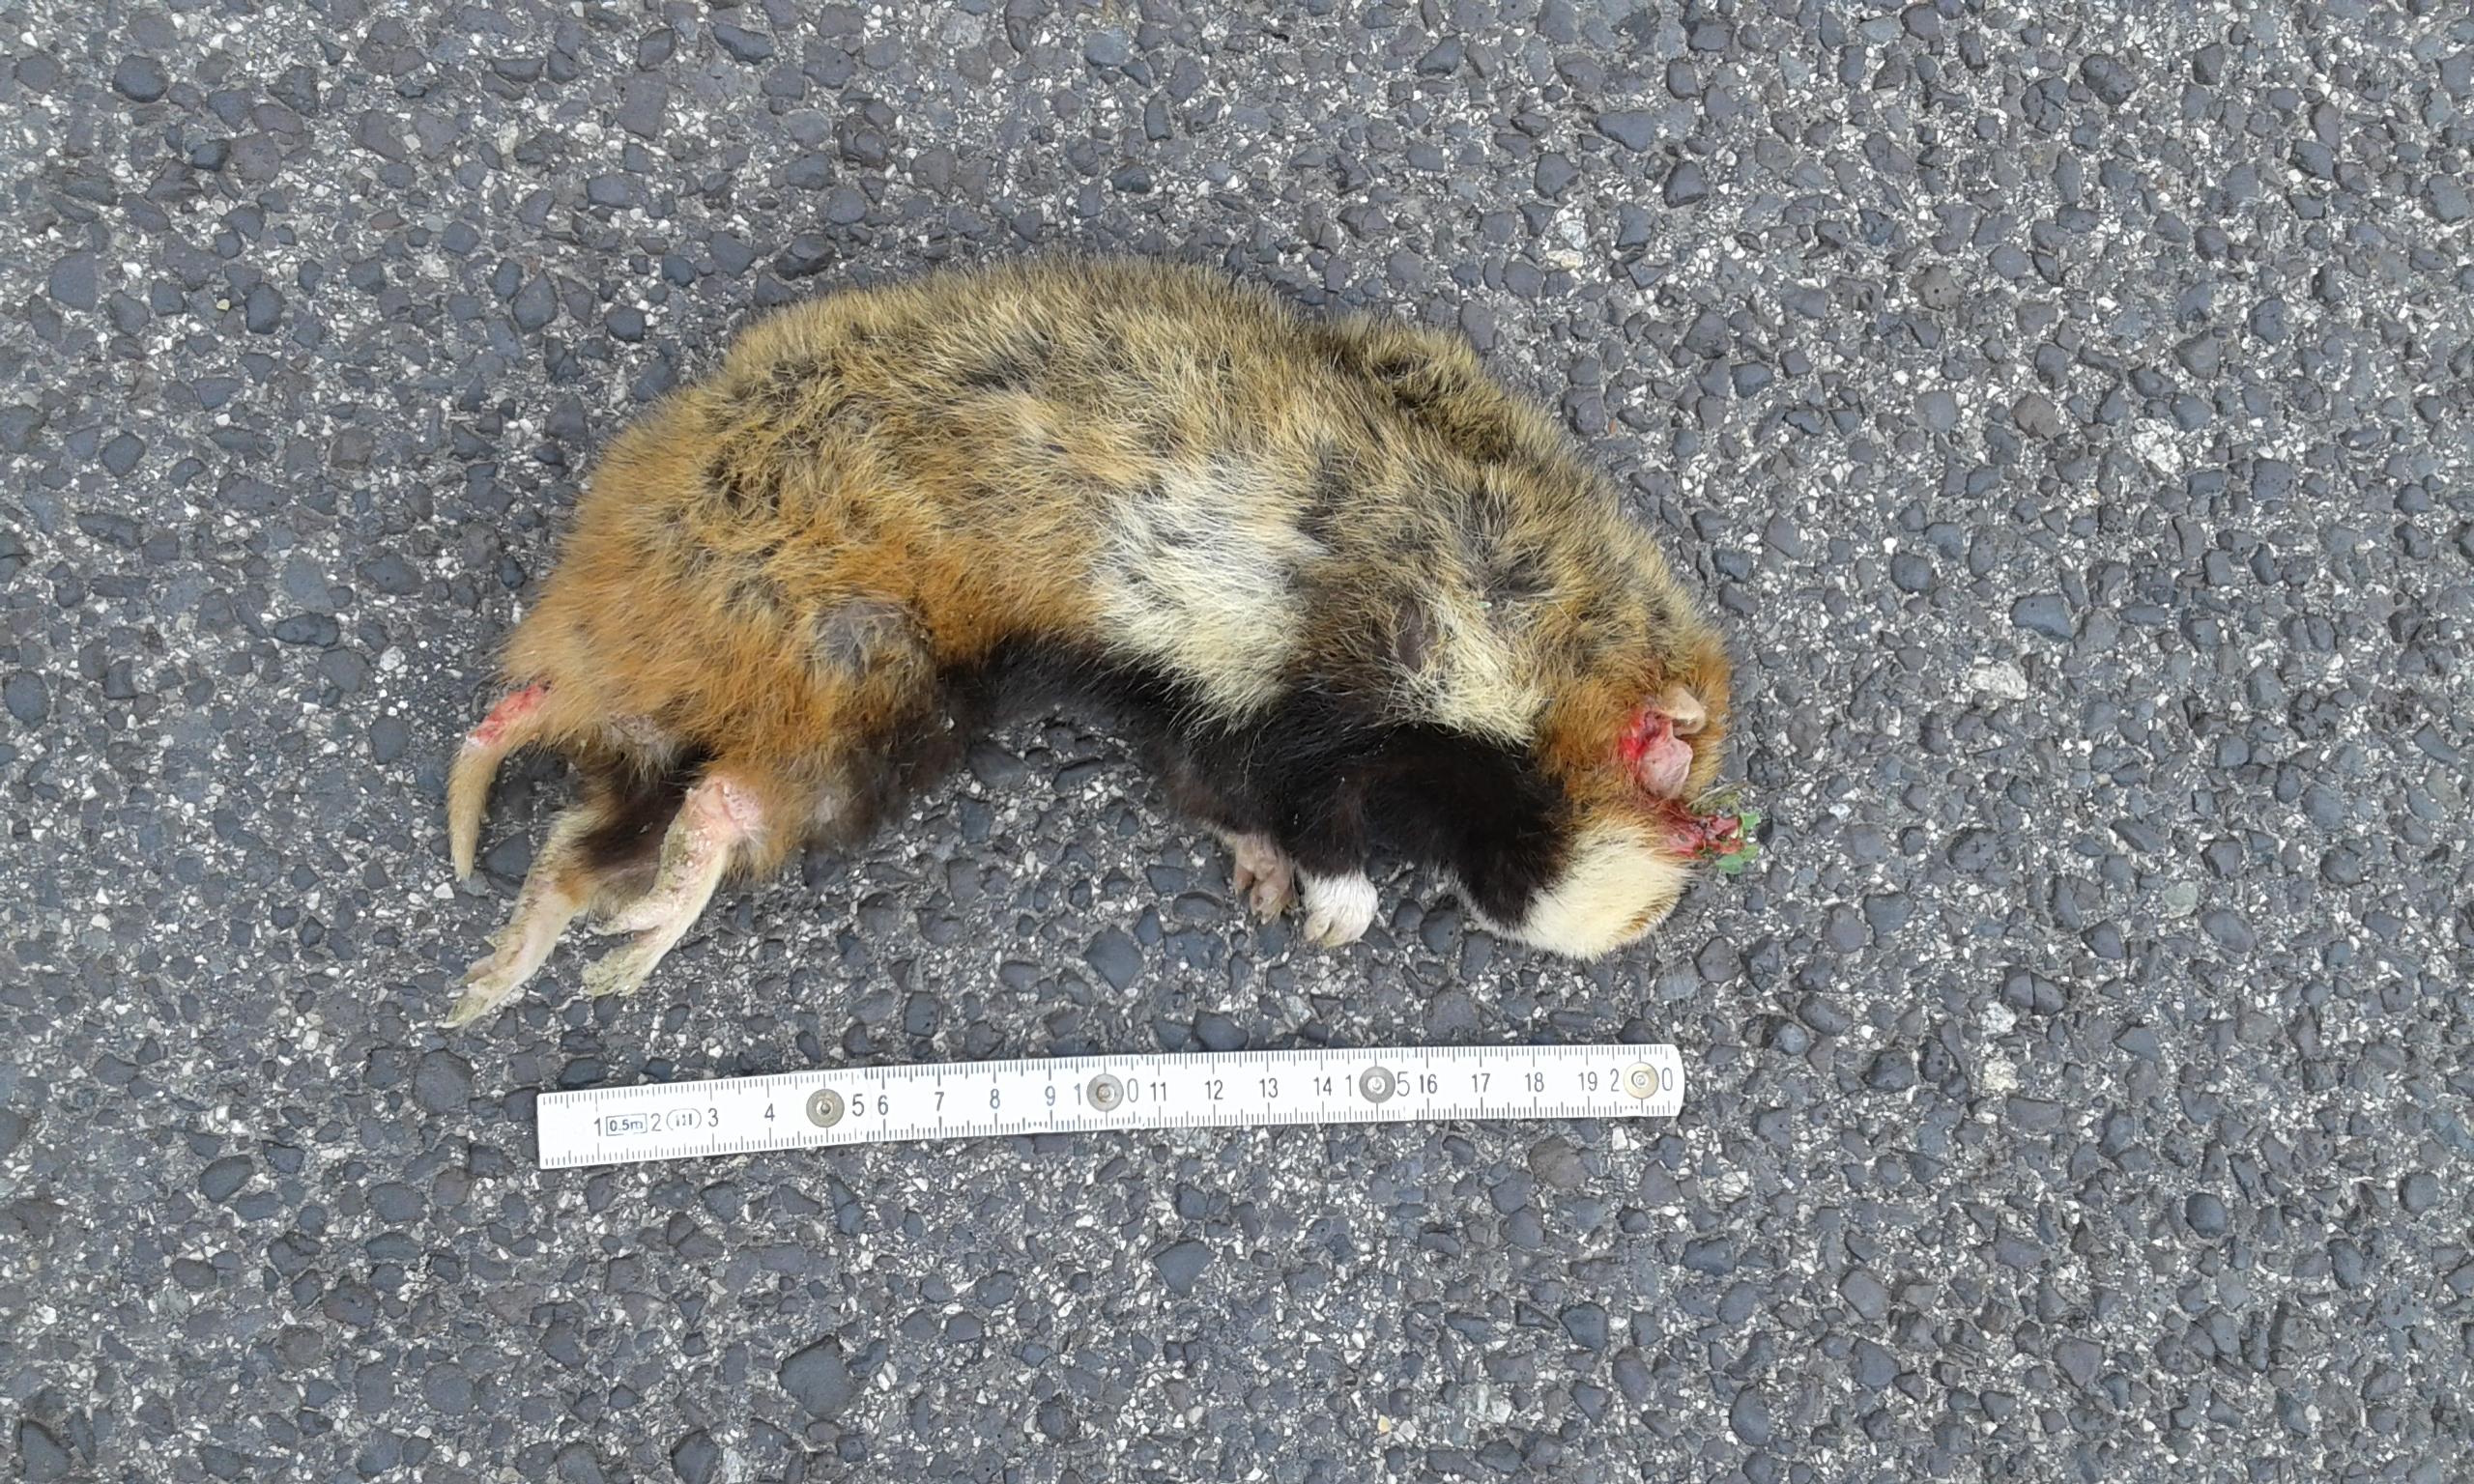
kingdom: Animalia
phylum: Chordata
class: Mammalia
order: Rodentia
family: Cricetidae
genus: Cricetus
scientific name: Cricetus cricetus
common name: Common hamster
